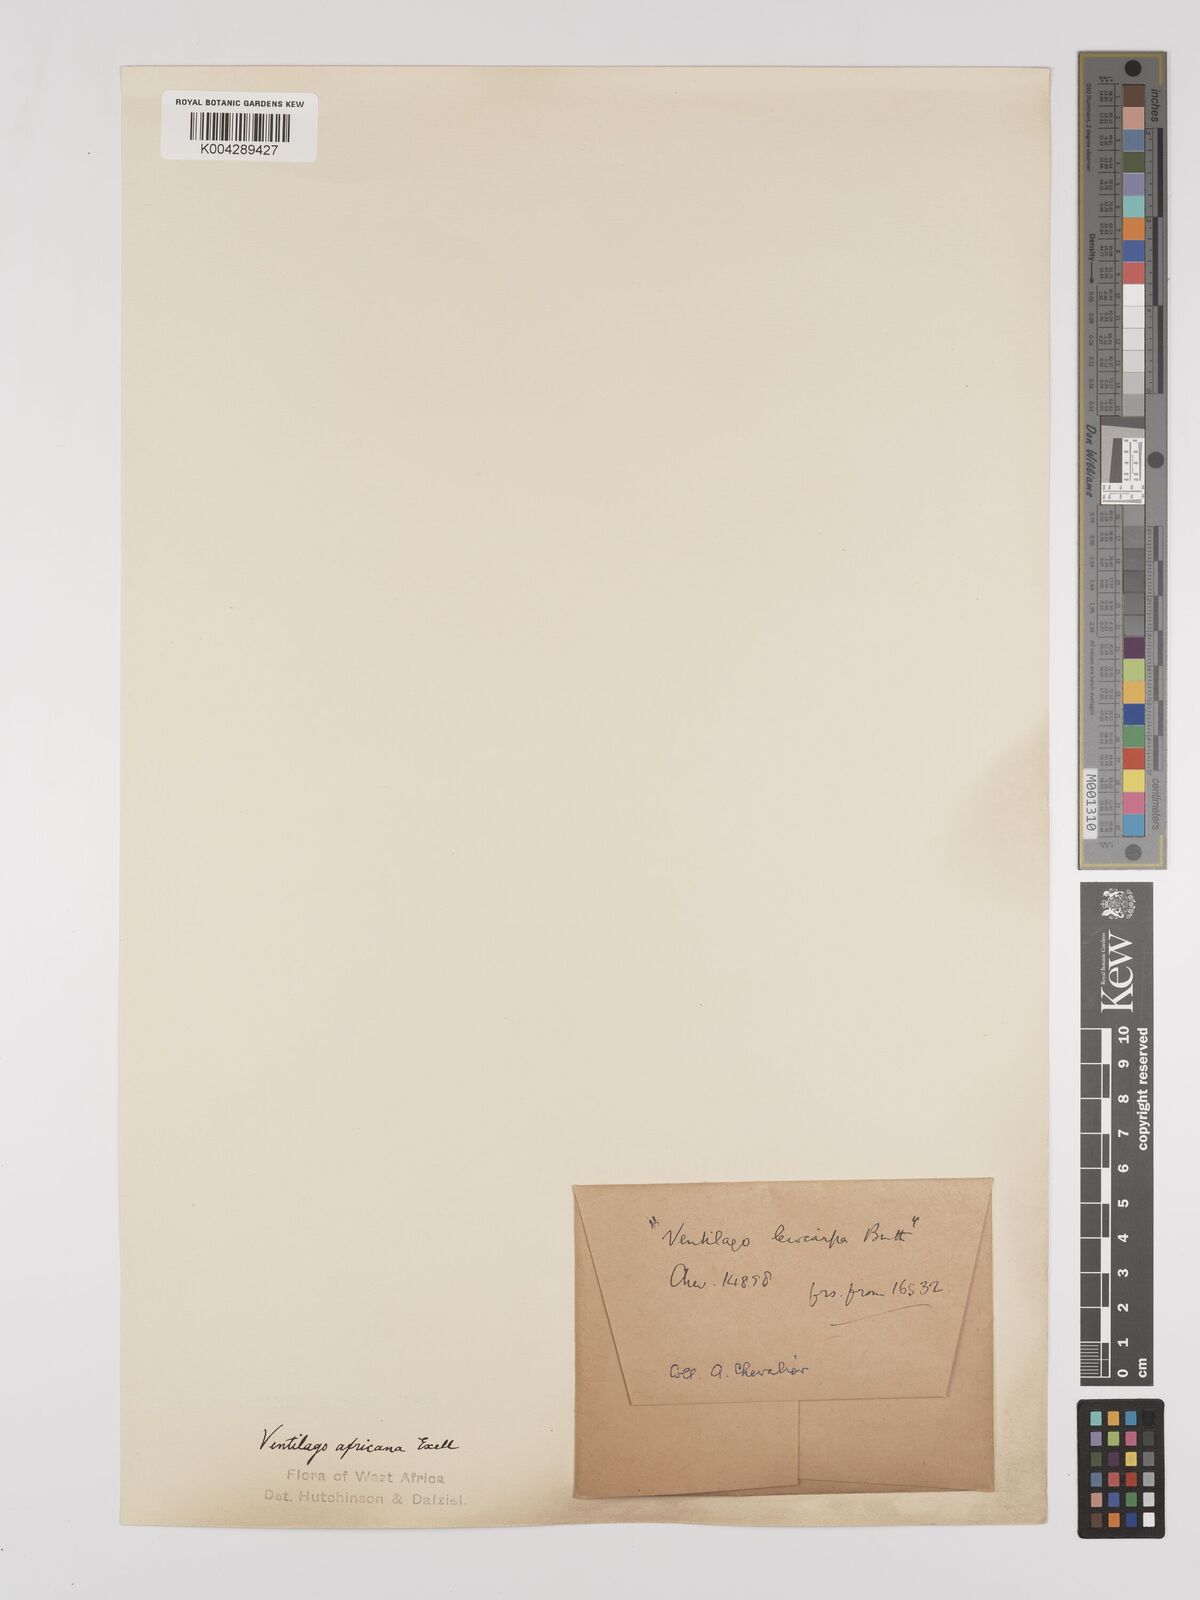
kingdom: Plantae
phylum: Tracheophyta
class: Magnoliopsida
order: Rosales
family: Rhamnaceae
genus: Ventilago
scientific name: Ventilago africana
